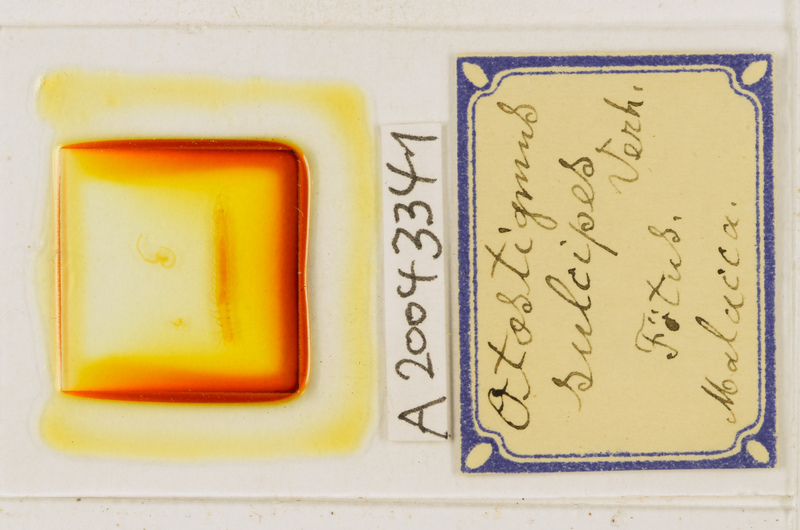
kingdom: Animalia
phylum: Arthropoda
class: Chilopoda
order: Scolopendromorpha
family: Scolopendridae
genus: Otostigmus
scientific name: Otostigmus sulcipes
